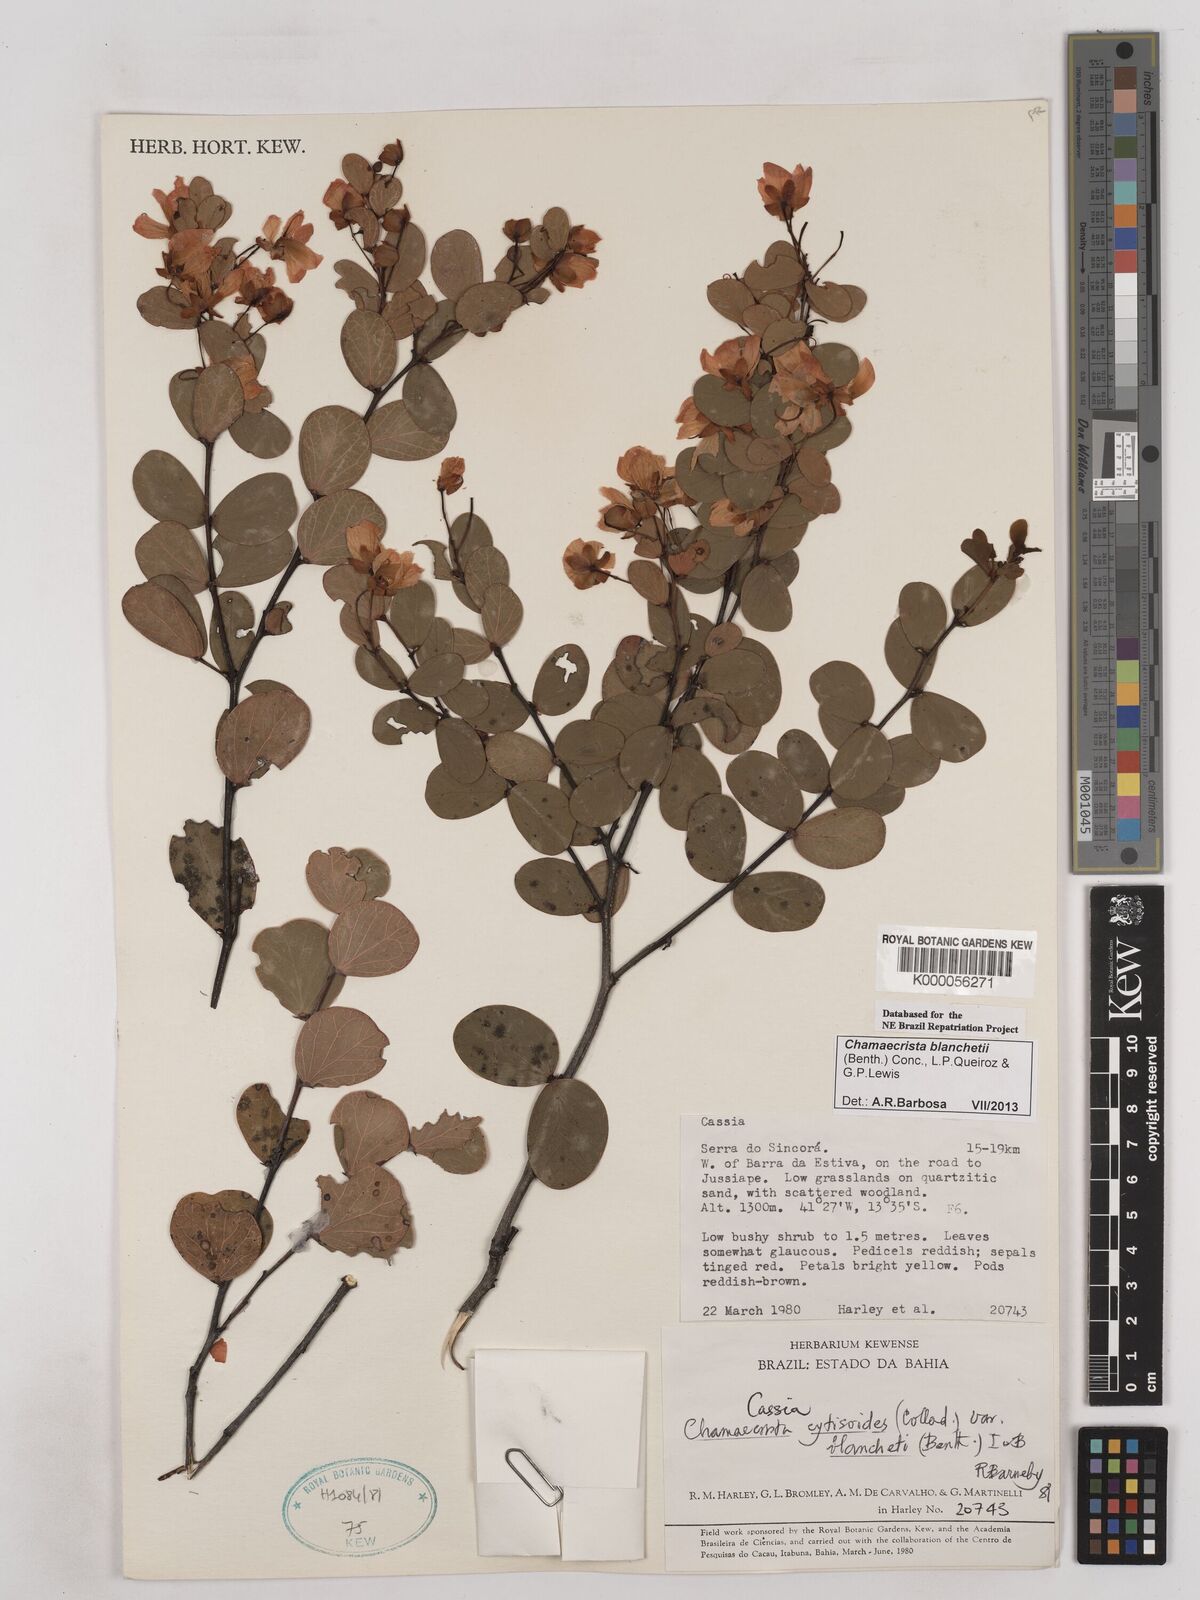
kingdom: Plantae
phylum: Tracheophyta
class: Magnoliopsida
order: Fabales
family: Fabaceae
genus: Chamaecrista
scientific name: Chamaecrista cytisoides
